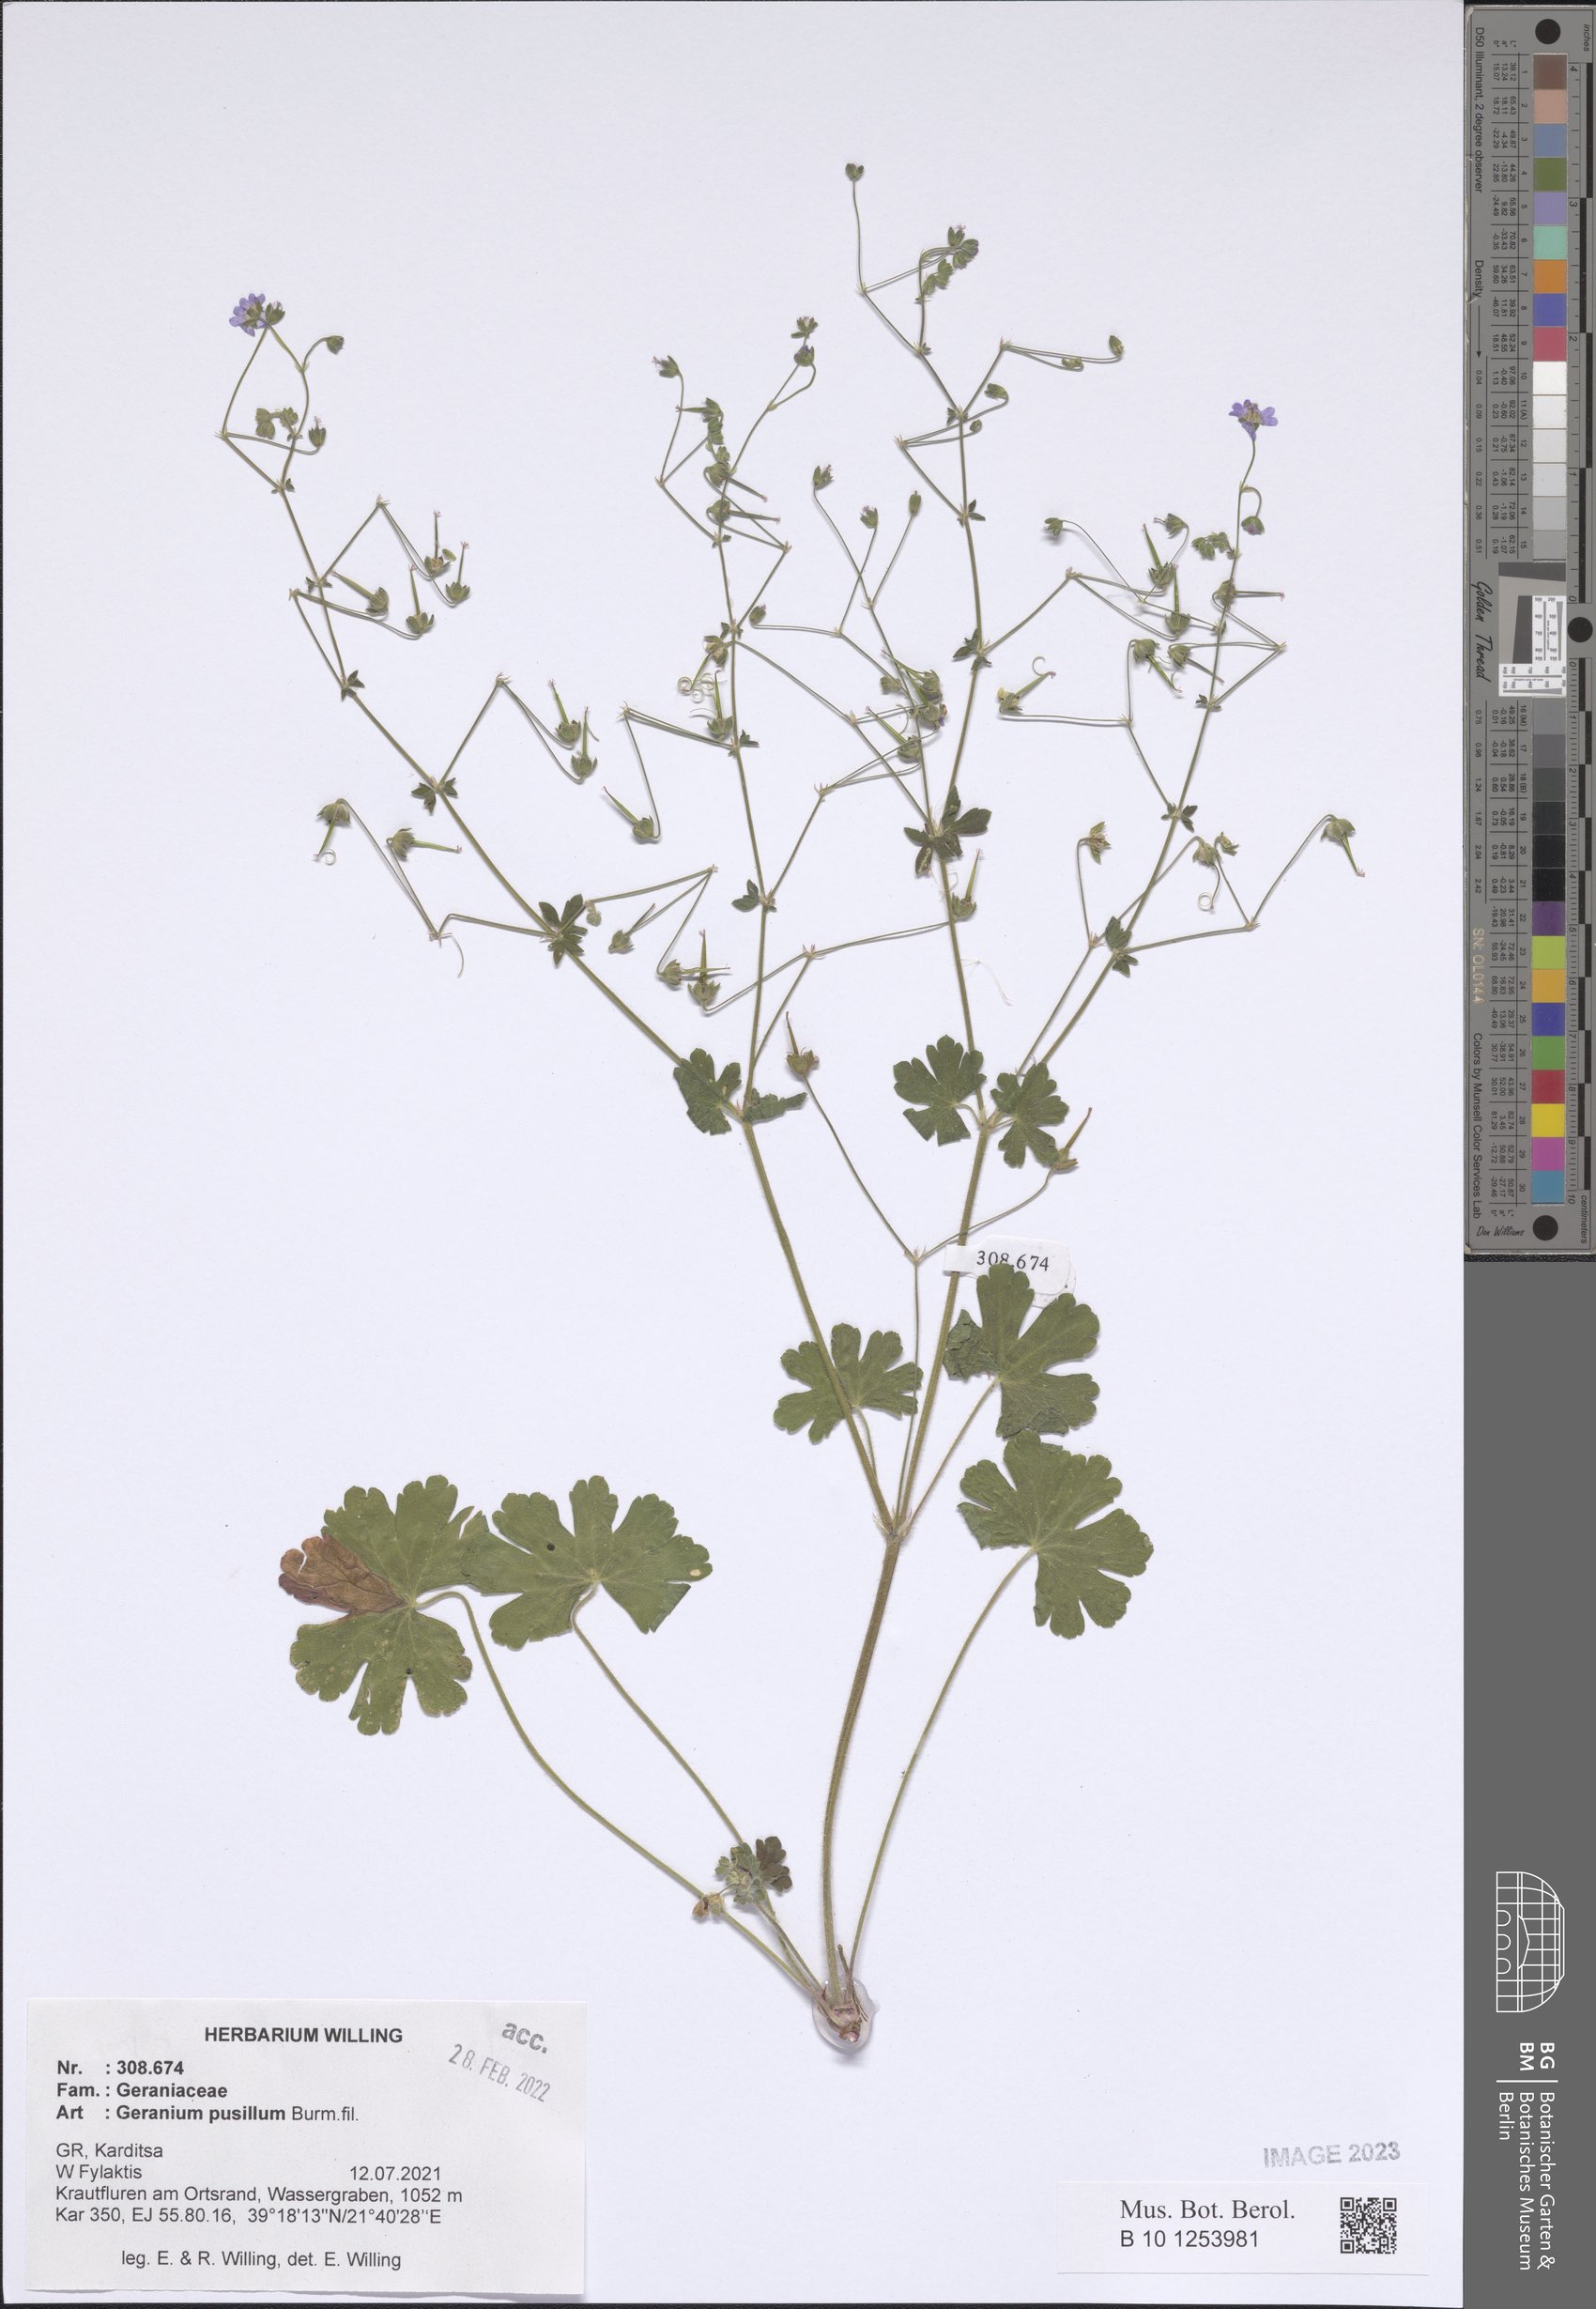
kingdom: Plantae
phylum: Tracheophyta
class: Magnoliopsida
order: Geraniales
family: Geraniaceae
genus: Geranium
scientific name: Geranium pusillum
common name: Small geranium
